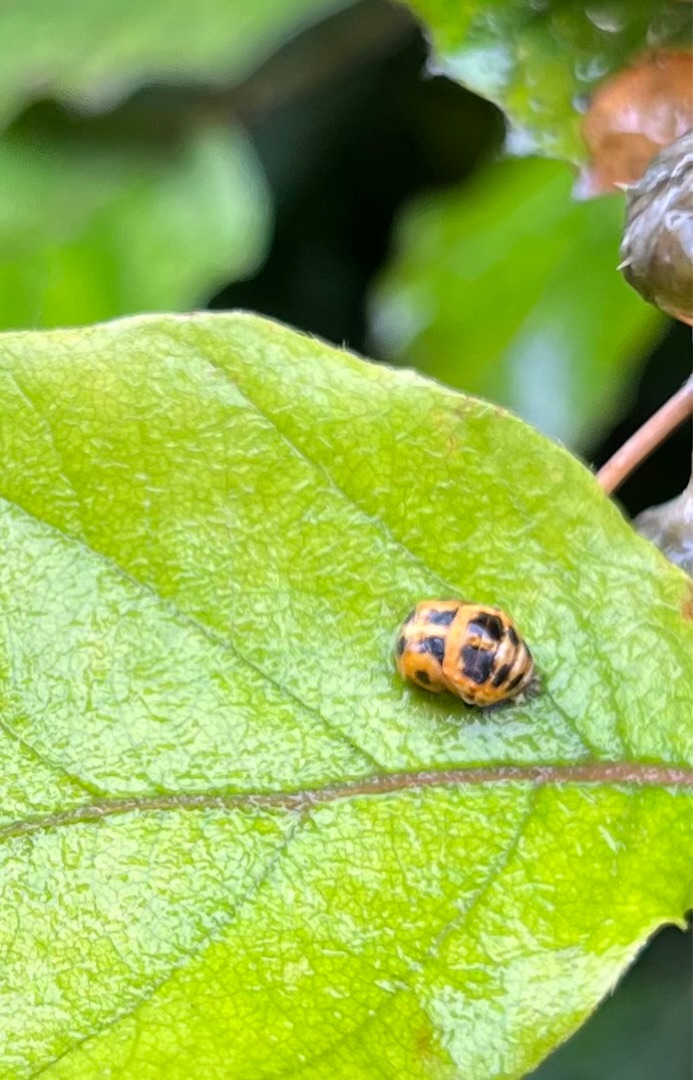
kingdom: Animalia
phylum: Arthropoda
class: Insecta
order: Coleoptera
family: Coccinellidae
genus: Harmonia
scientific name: Harmonia axyridis
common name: Harlekinmariehøne
